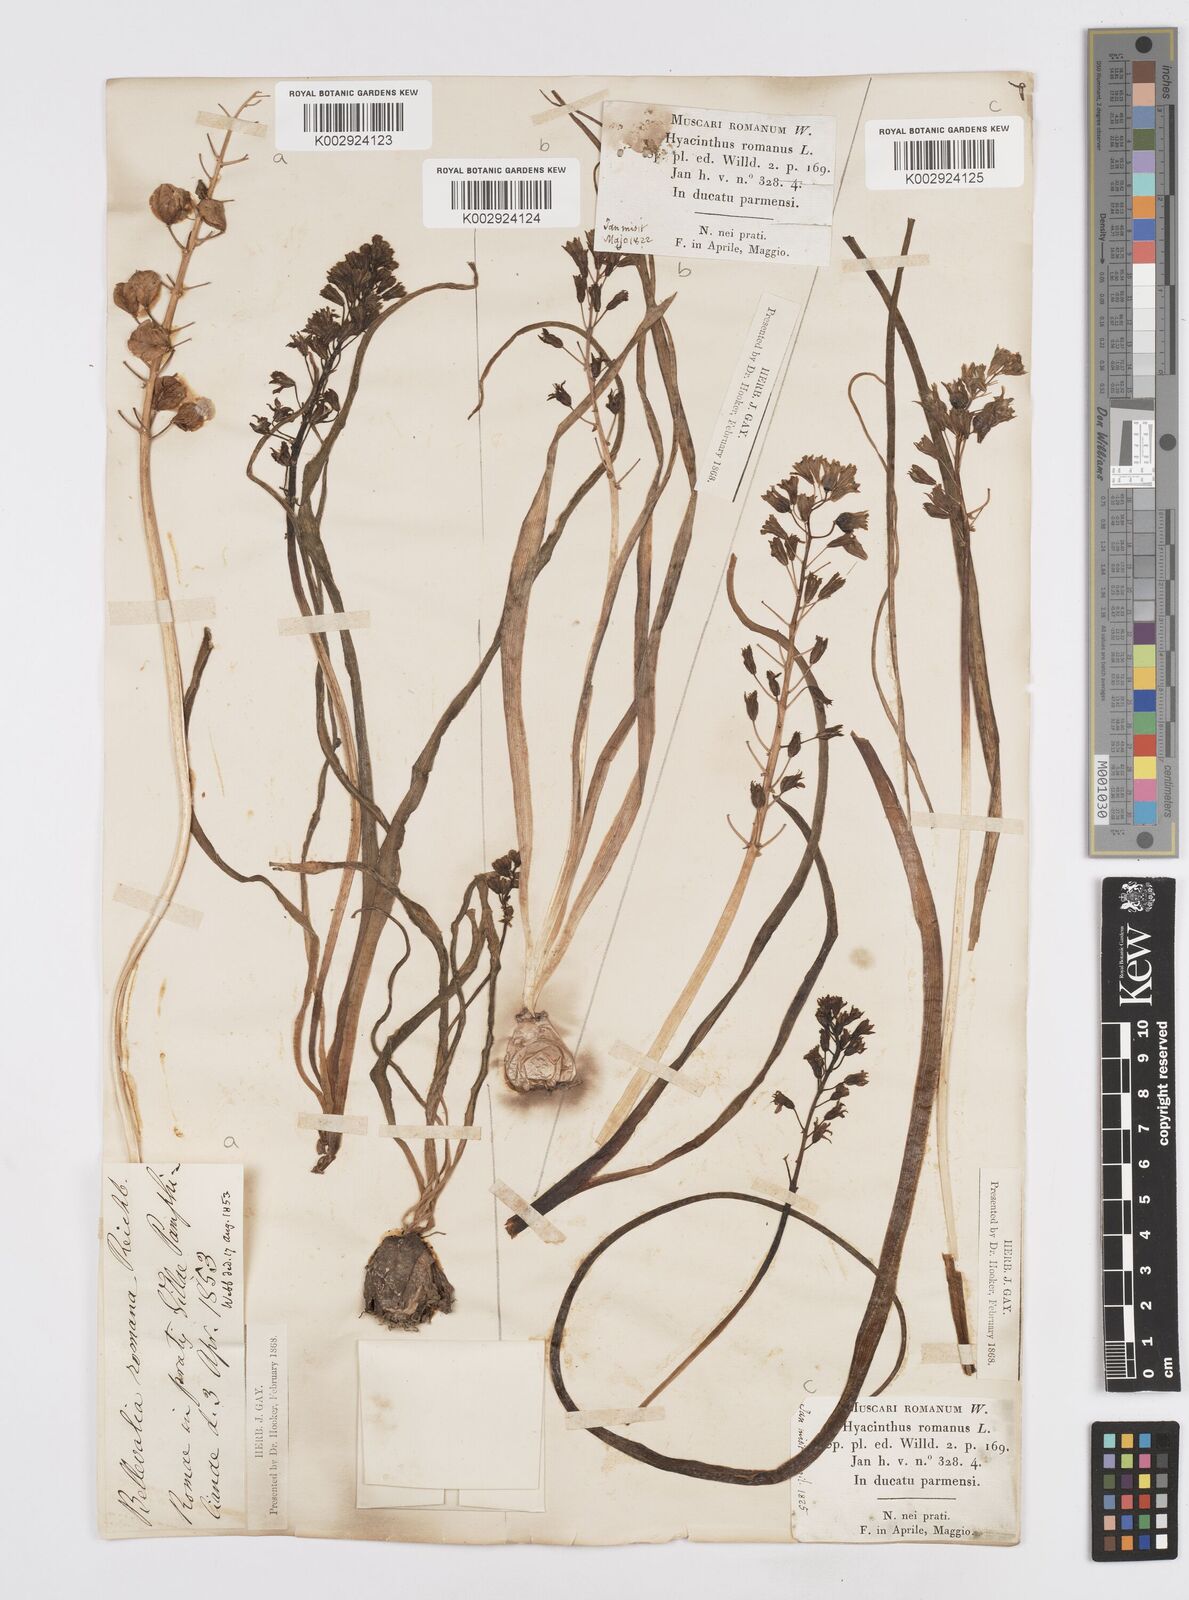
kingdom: Plantae
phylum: Tracheophyta
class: Liliopsida
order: Asparagales
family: Asparagaceae
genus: Bellevalia
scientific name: Bellevalia
